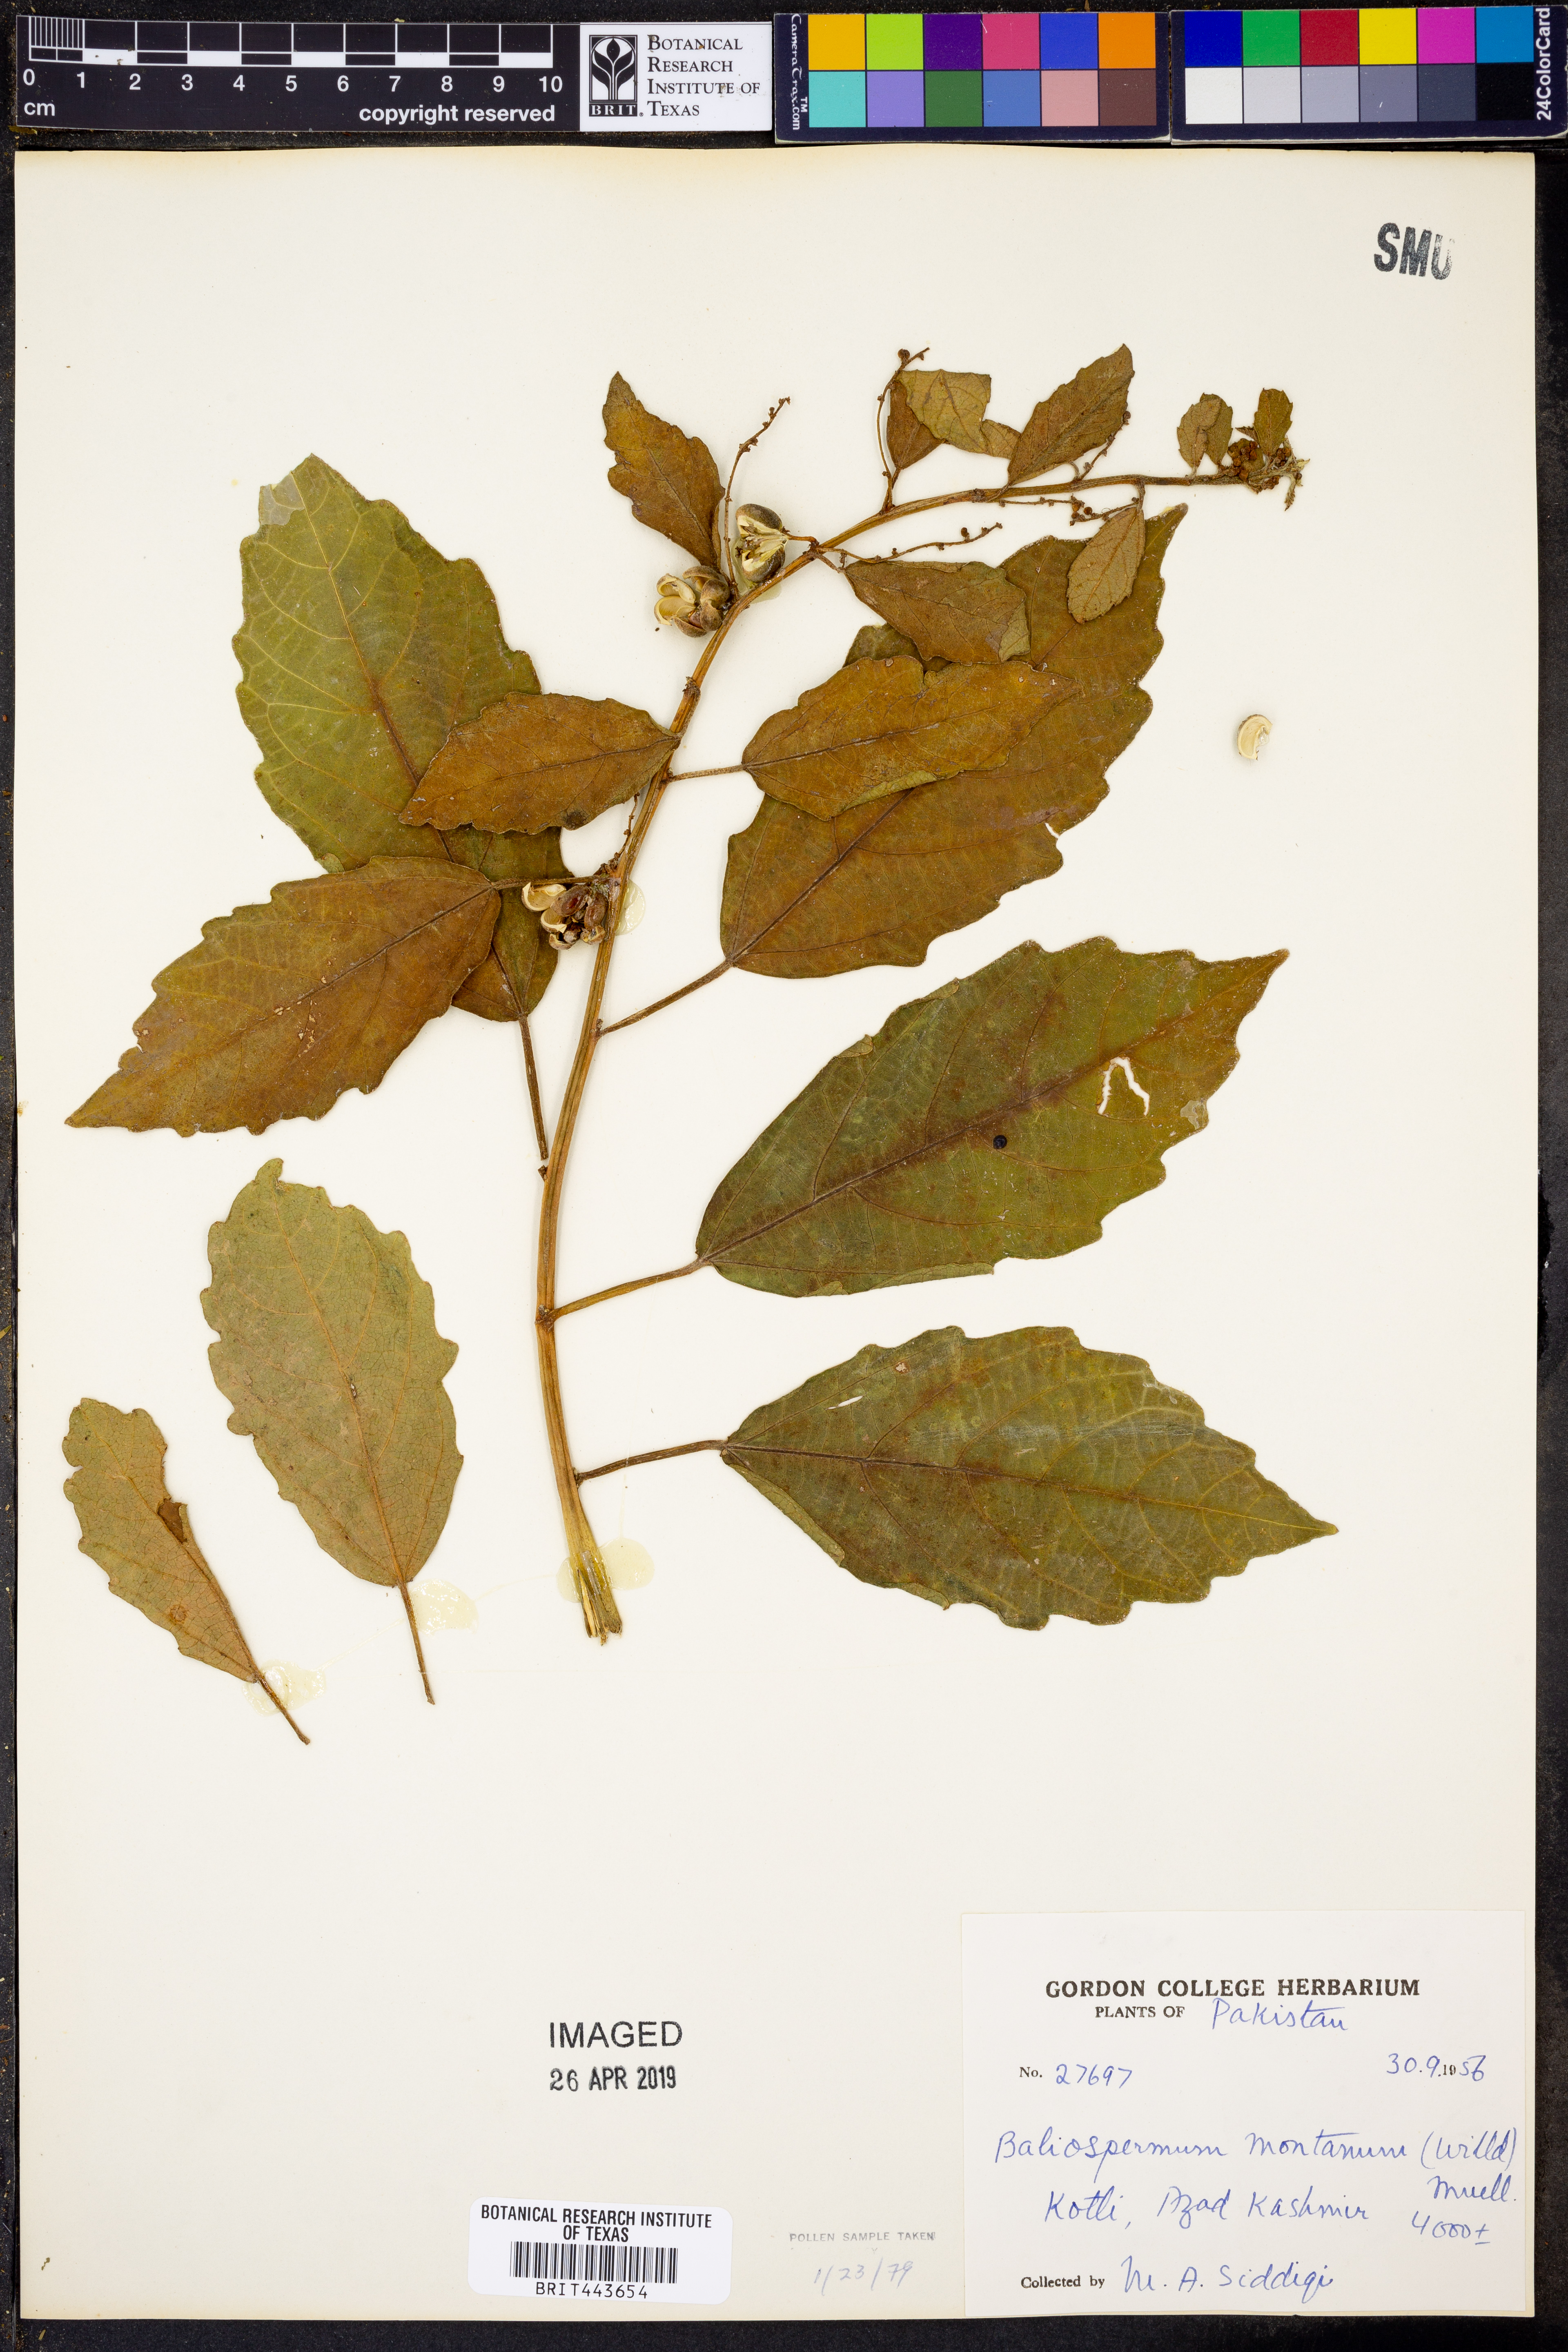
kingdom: Plantae
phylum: Tracheophyta
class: Magnoliopsida
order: Malpighiales
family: Euphorbiaceae
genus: Baliospermum
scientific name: Baliospermum solanifolium
